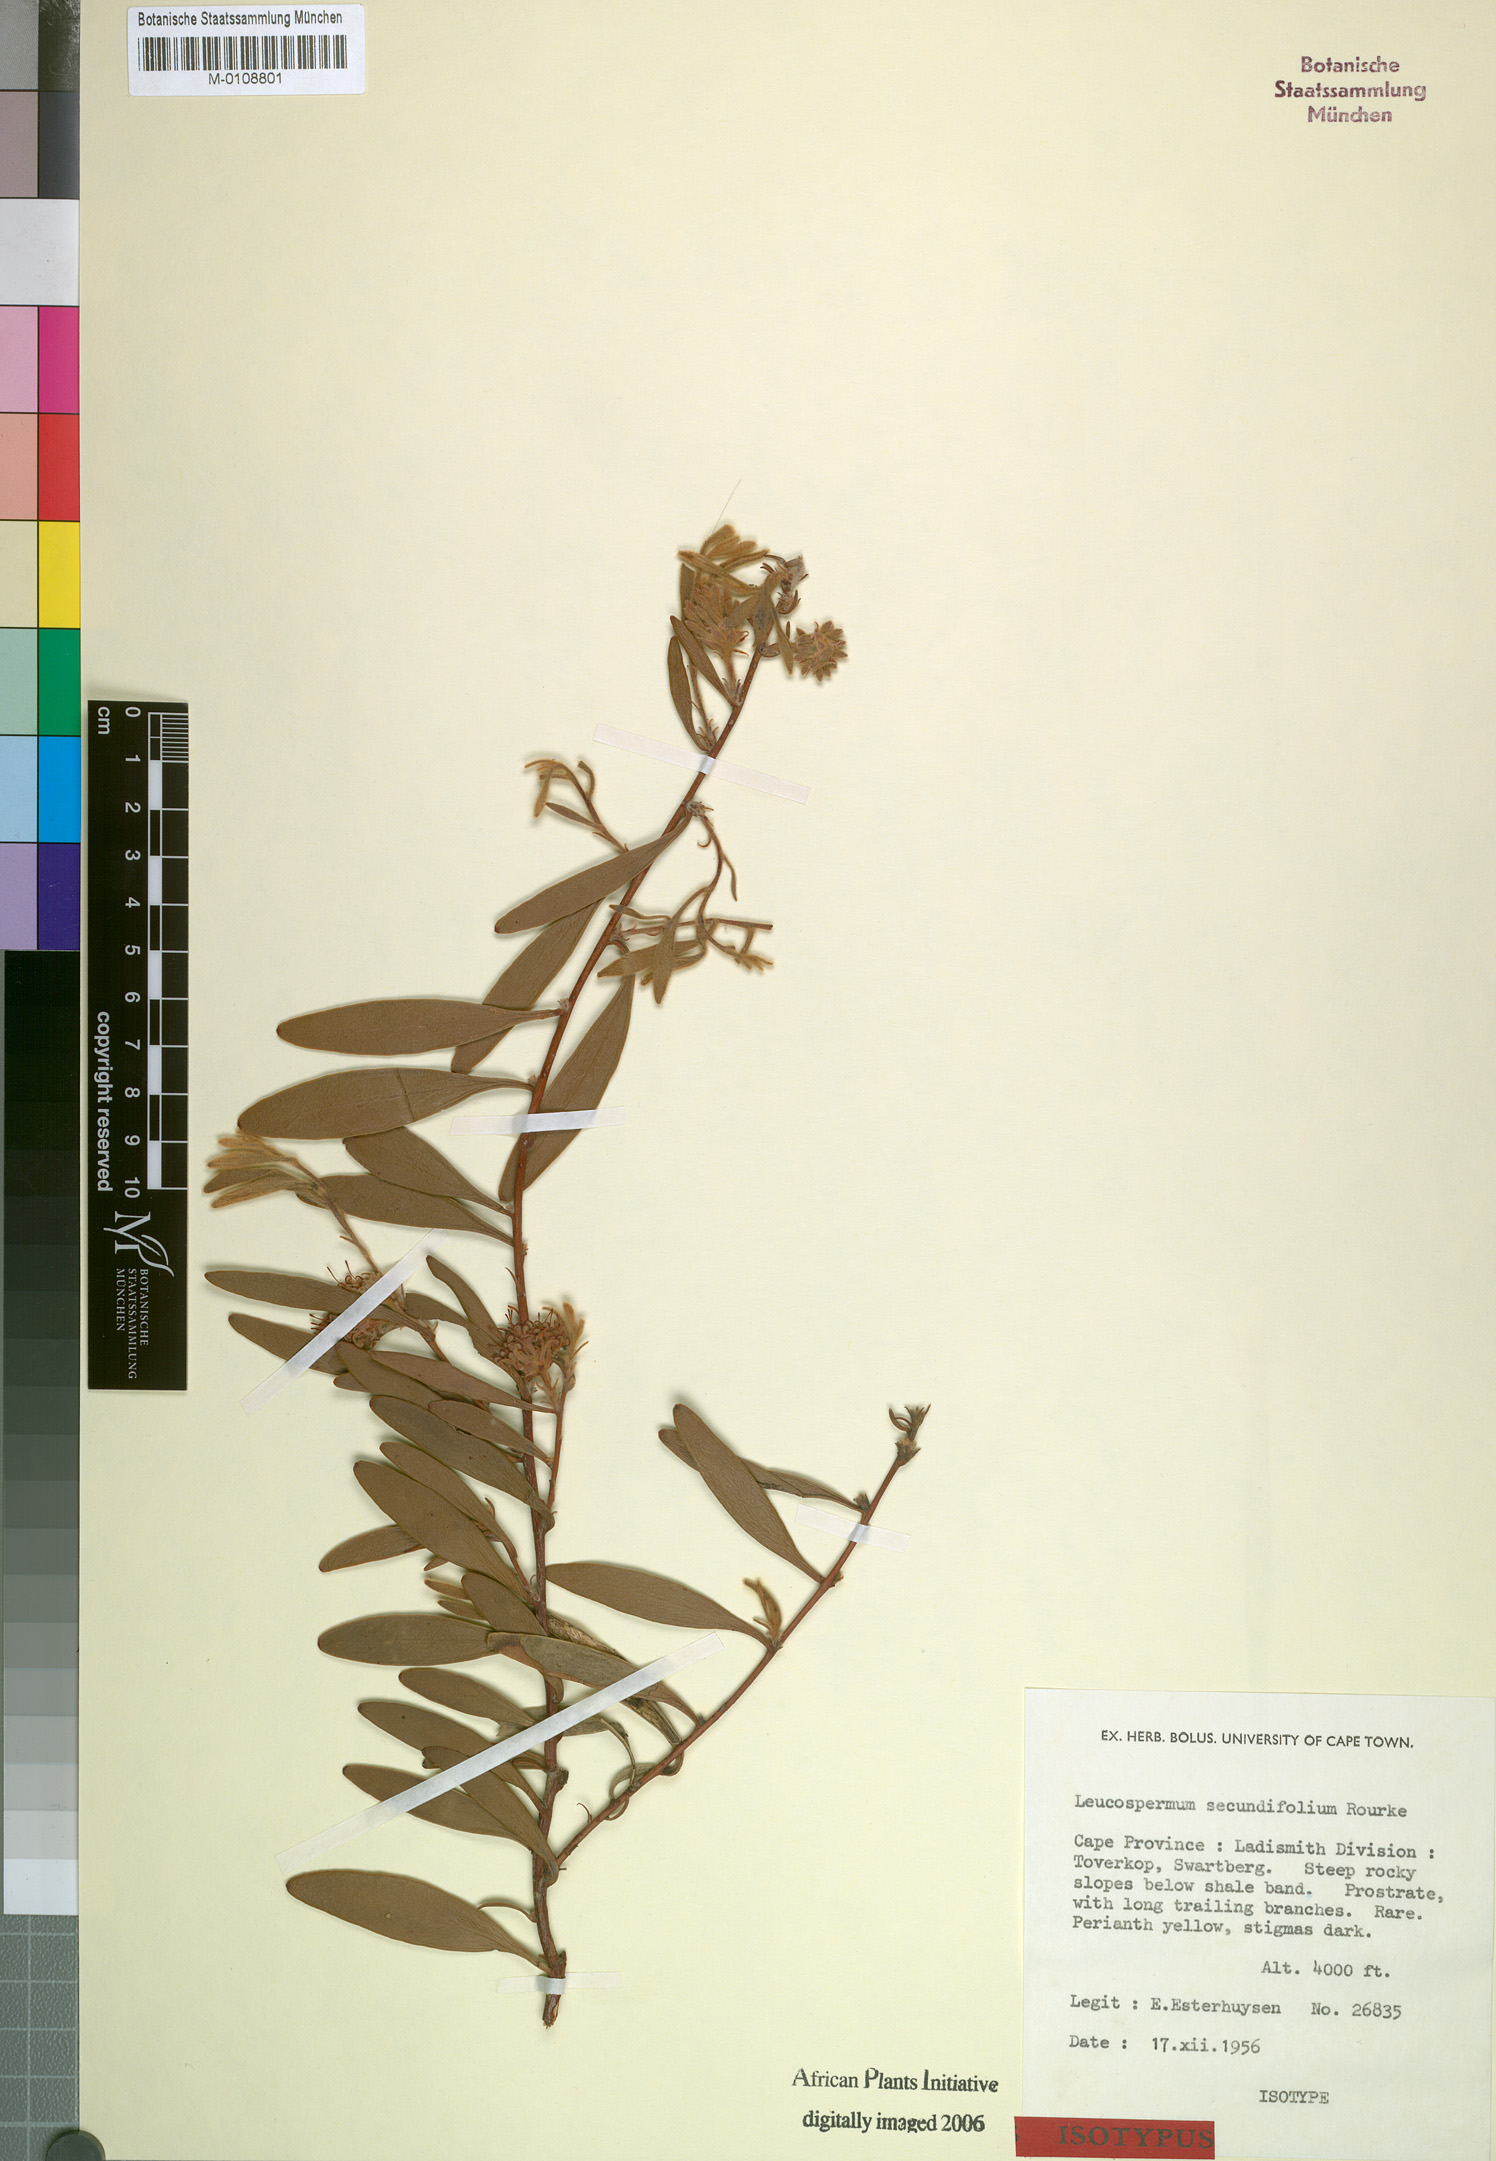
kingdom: Plantae
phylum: Tracheophyta
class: Magnoliopsida
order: Proteales
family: Proteaceae
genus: Leucospermum
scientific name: Leucospermum secundifolium
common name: Stalked pincushion
